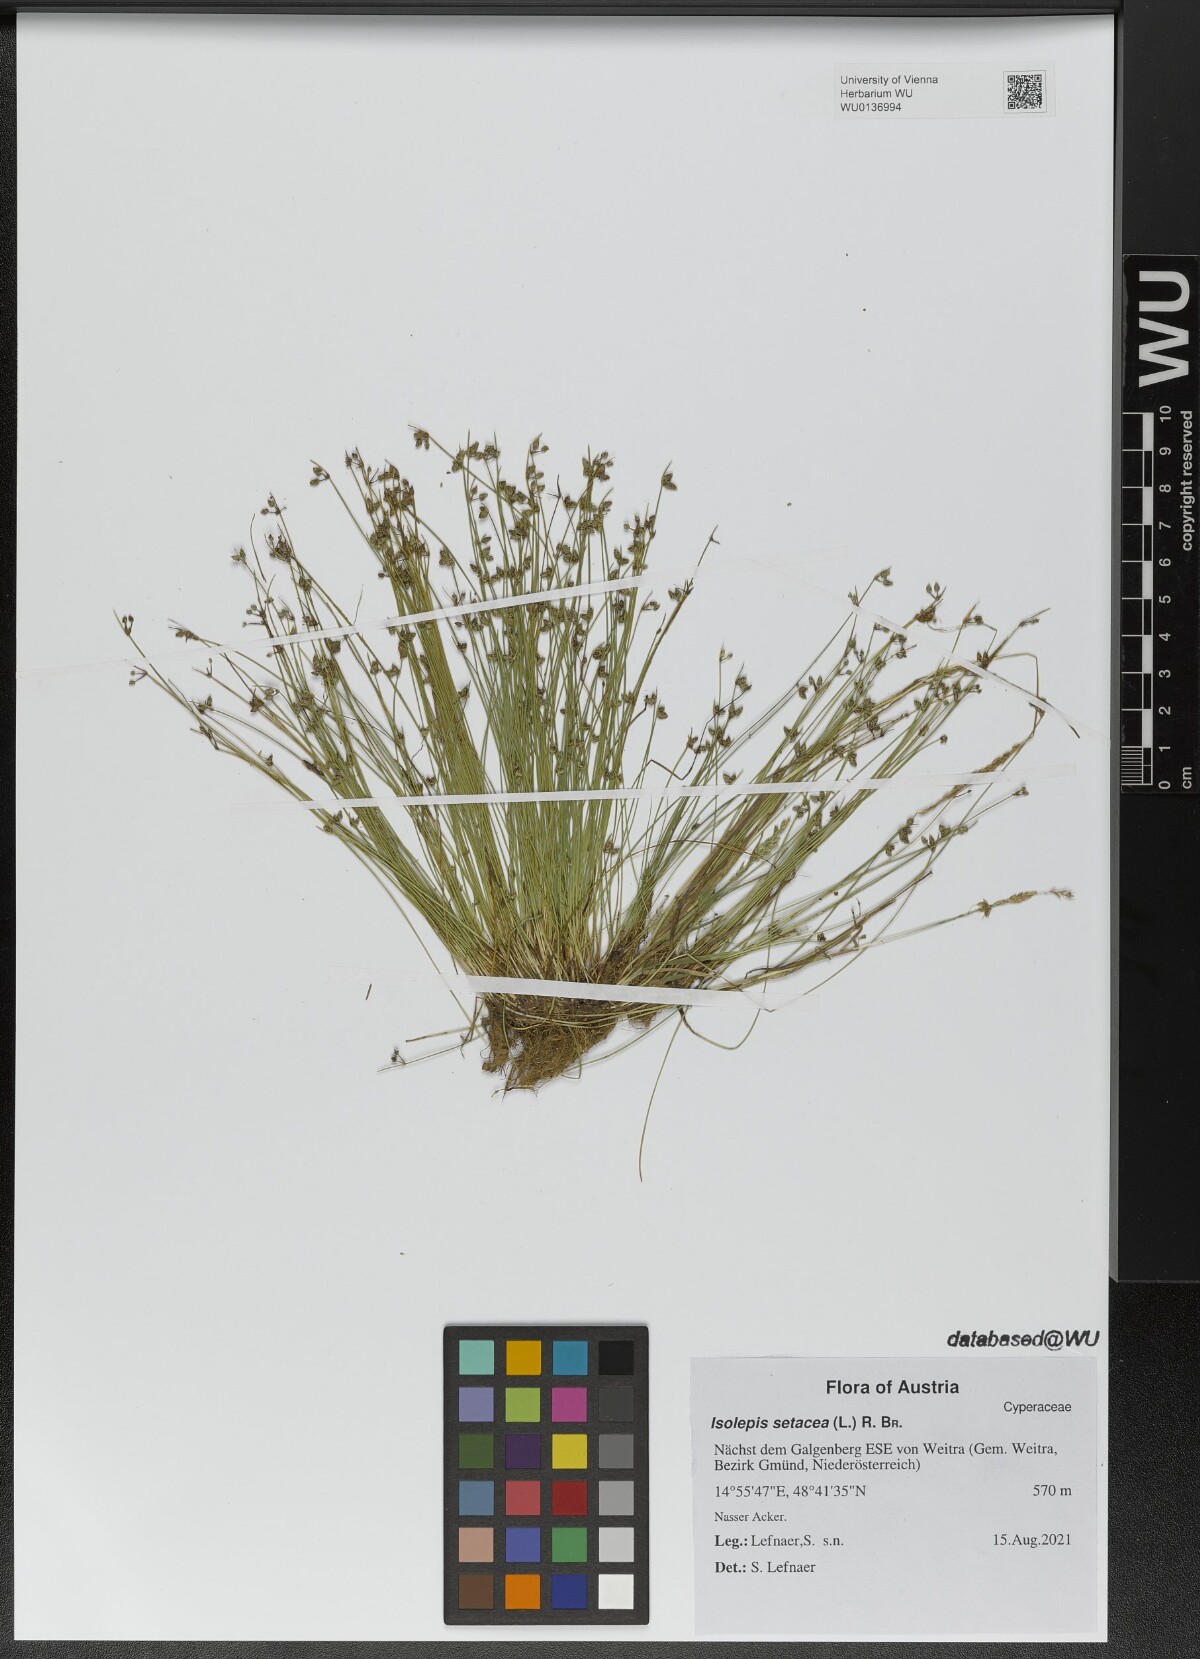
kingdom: Plantae
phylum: Tracheophyta
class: Liliopsida
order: Poales
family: Cyperaceae
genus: Isolepis
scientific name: Isolepis setacea
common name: Bristle club-rush
